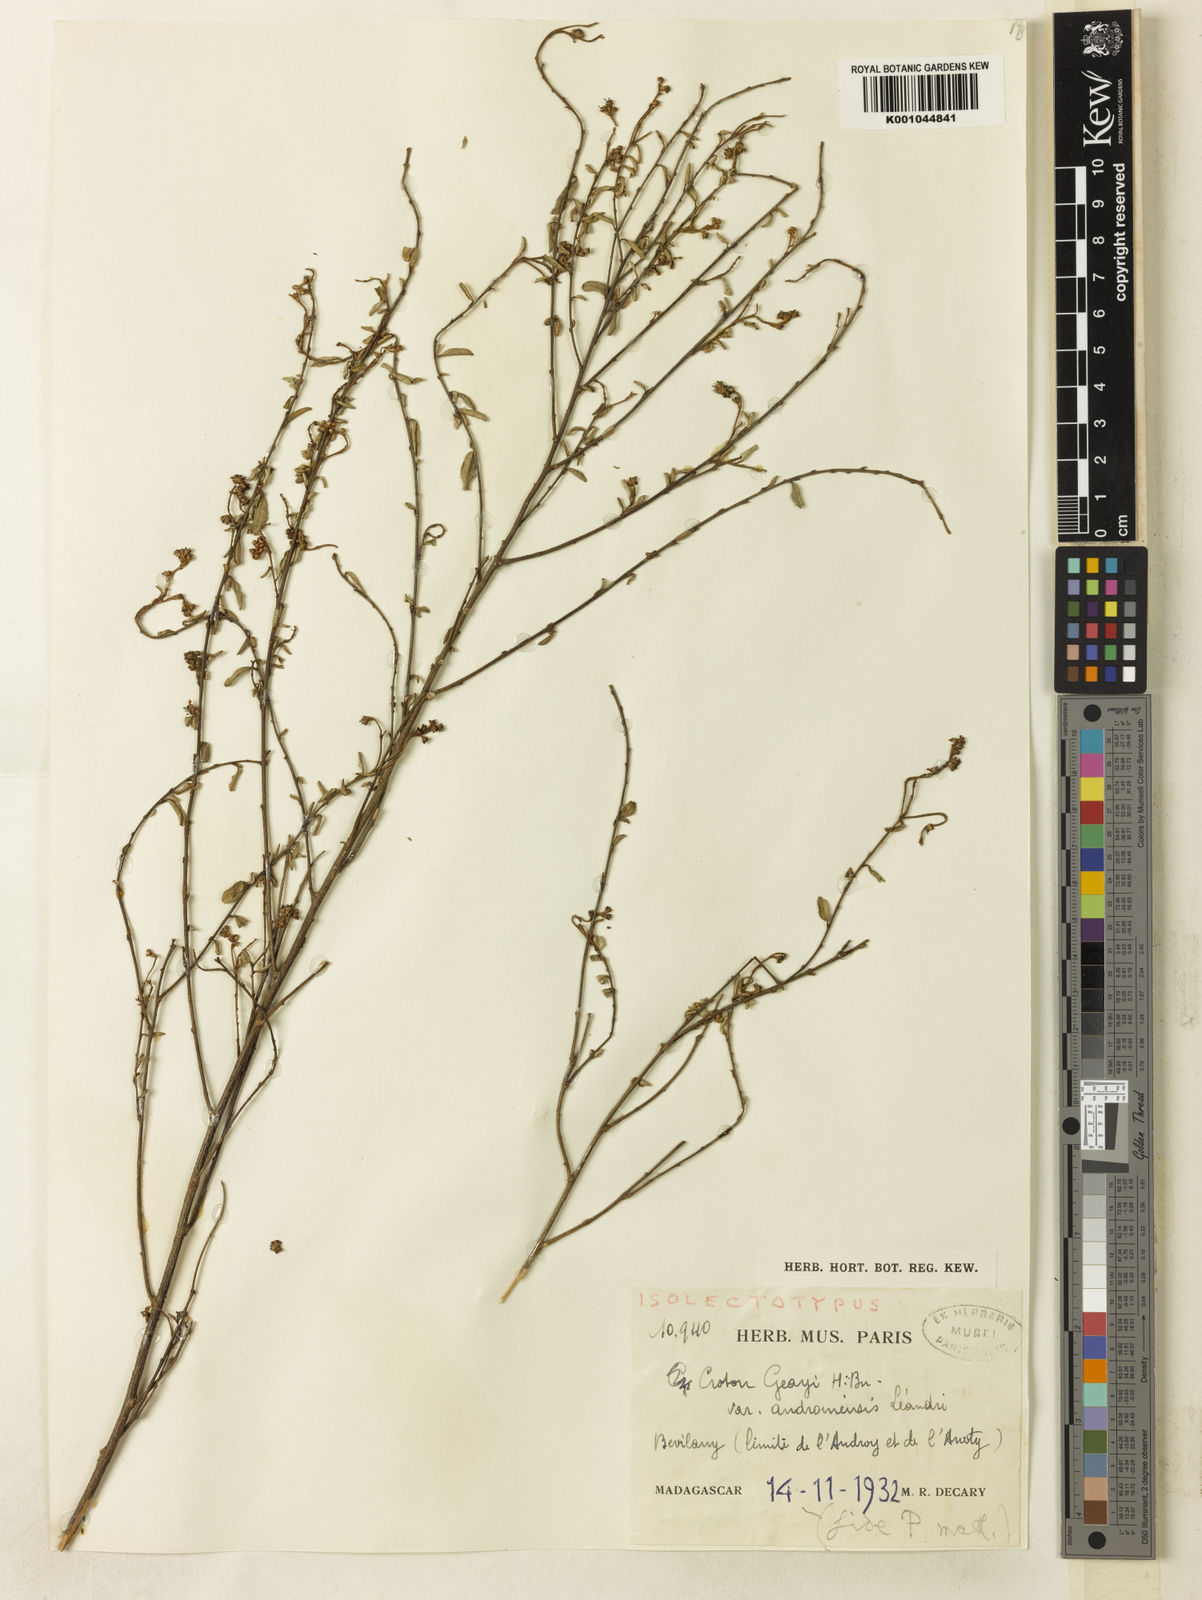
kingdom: Plantae
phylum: Tracheophyta
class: Magnoliopsida
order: Malpighiales
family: Euphorbiaceae
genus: Croton
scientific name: Croton androiensis
